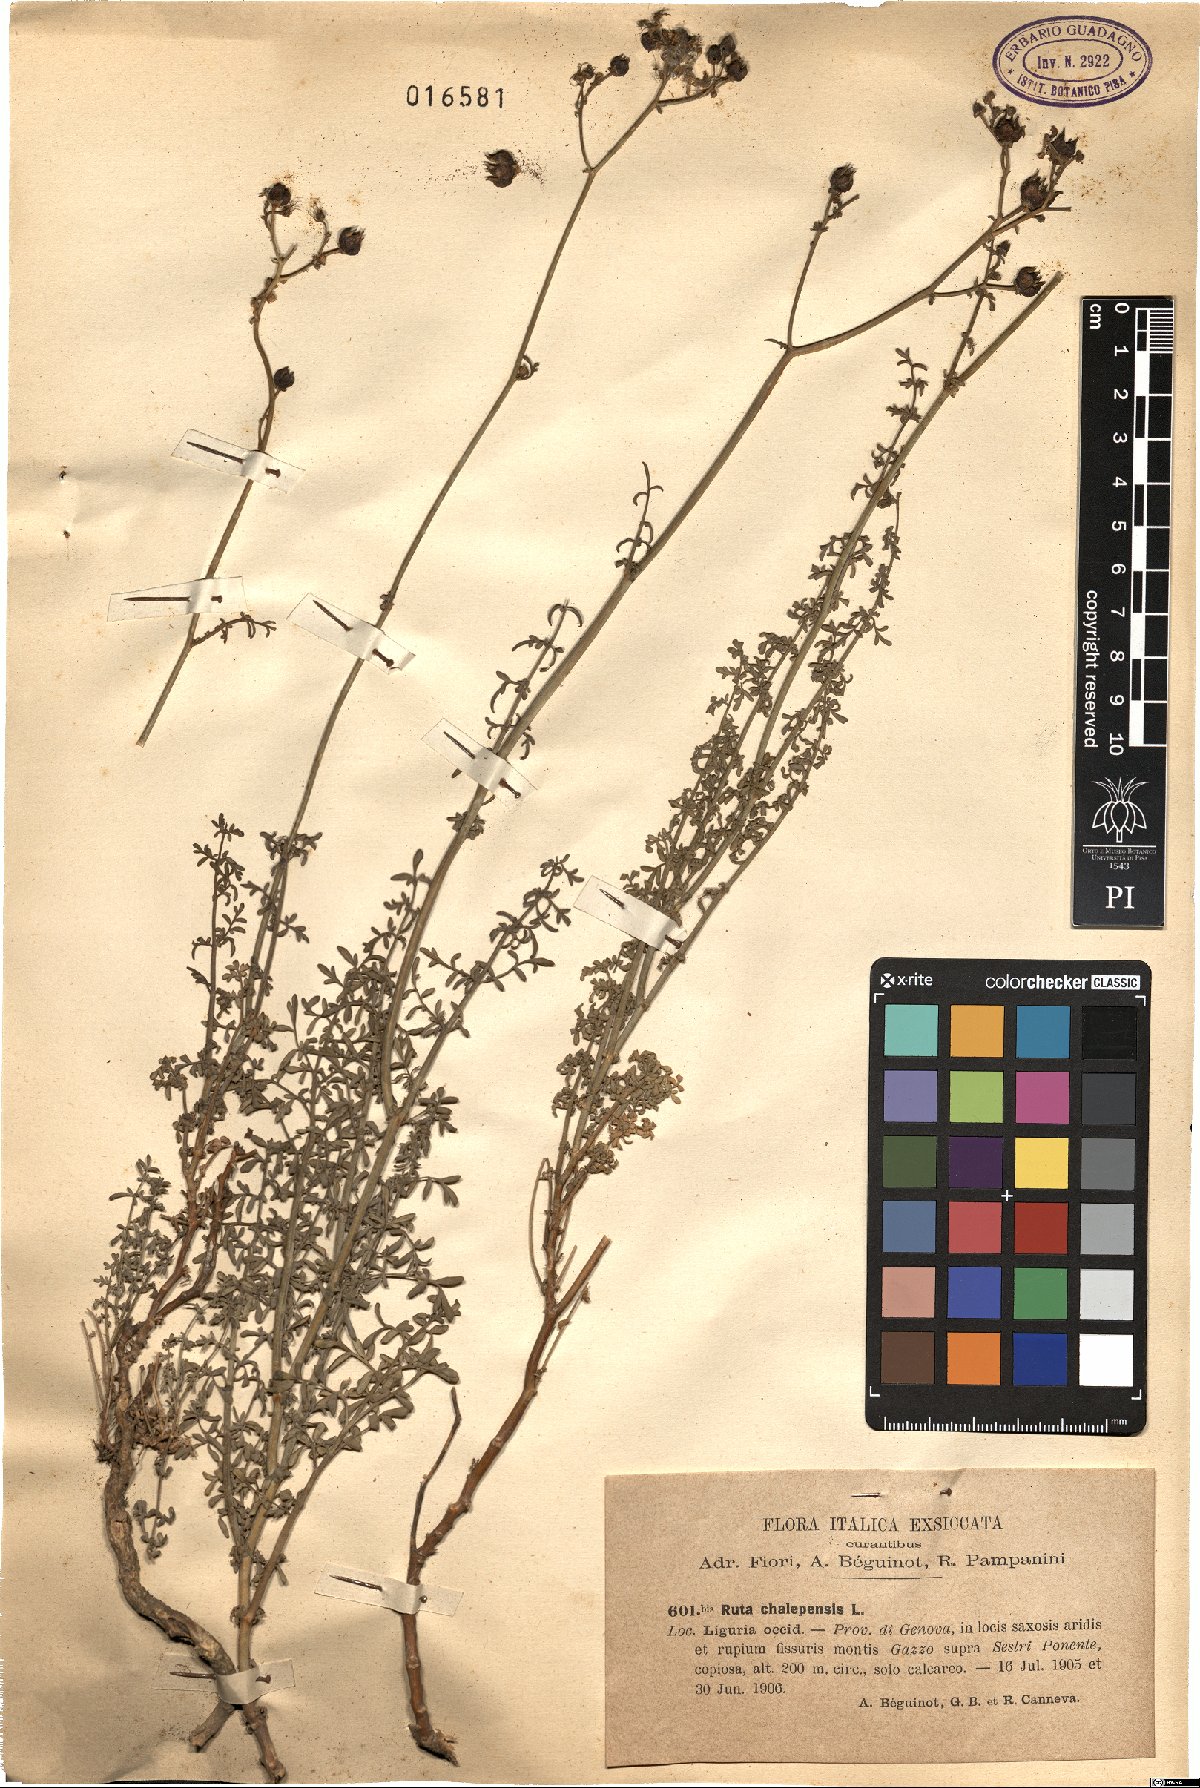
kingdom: Plantae
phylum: Tracheophyta
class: Magnoliopsida
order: Sapindales
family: Rutaceae
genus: Ruta
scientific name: Ruta chalepensis
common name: Fringed rue
